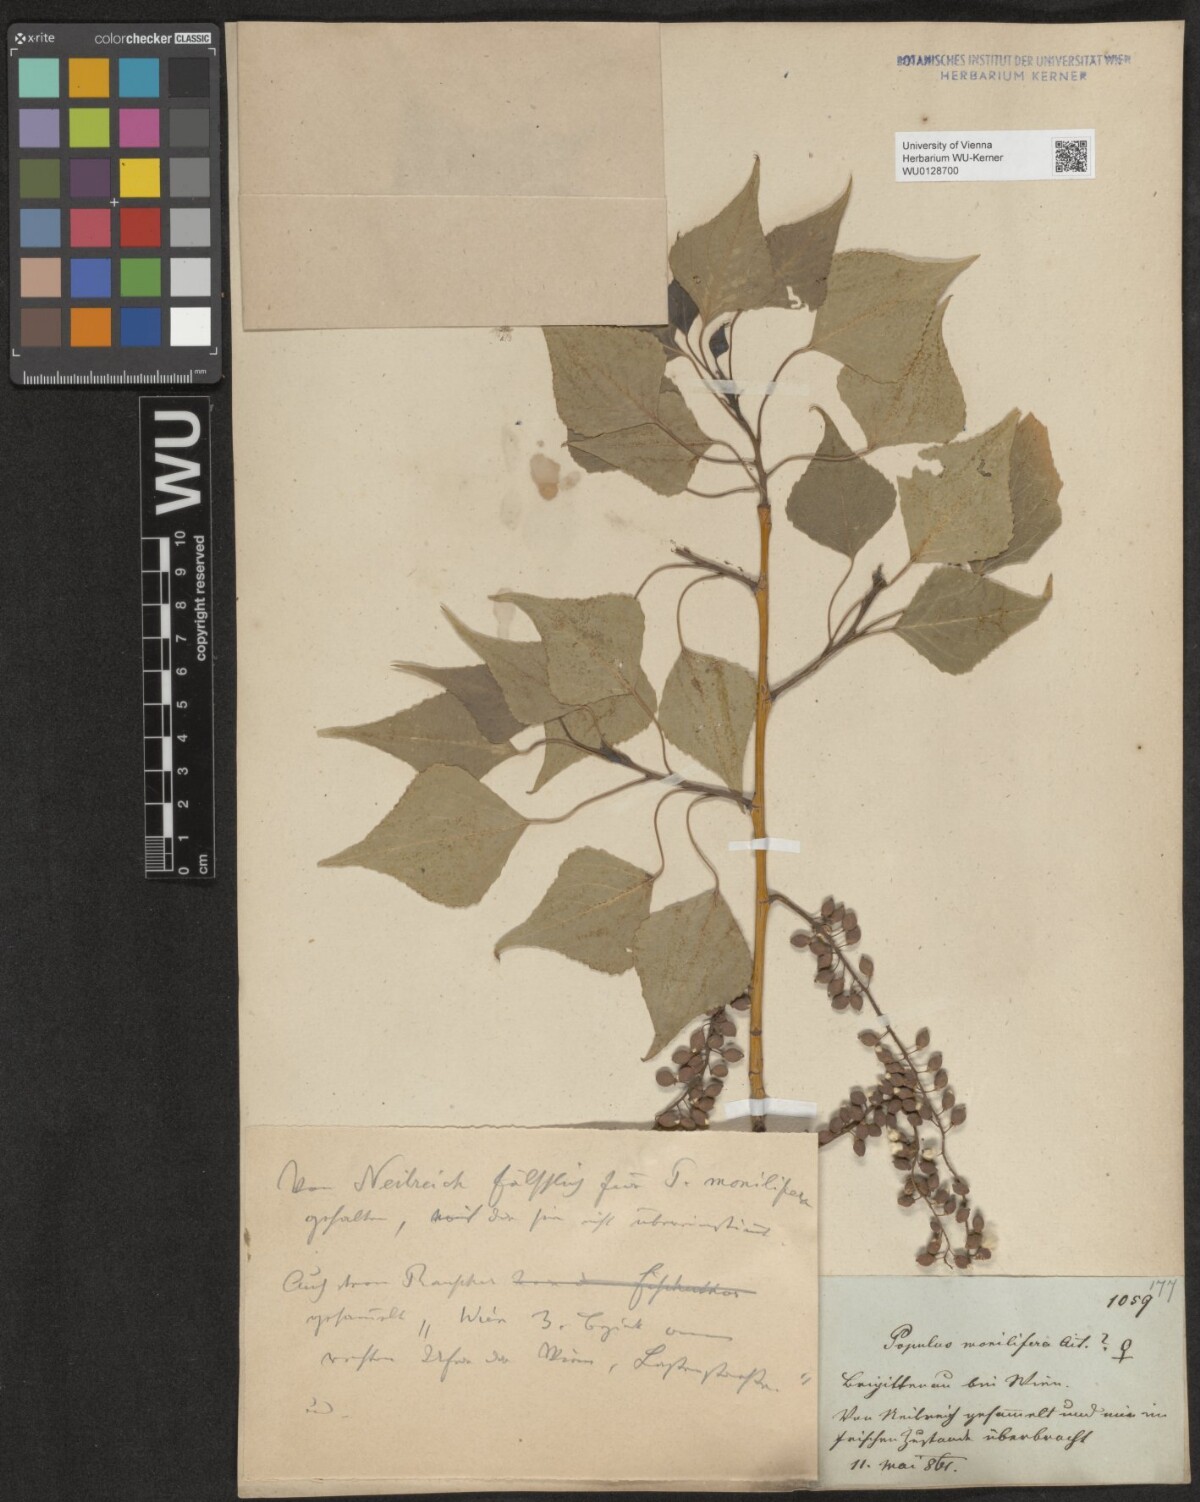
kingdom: Plantae
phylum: Tracheophyta
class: Magnoliopsida
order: Malpighiales
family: Salicaceae
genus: Populus
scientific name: Populus
